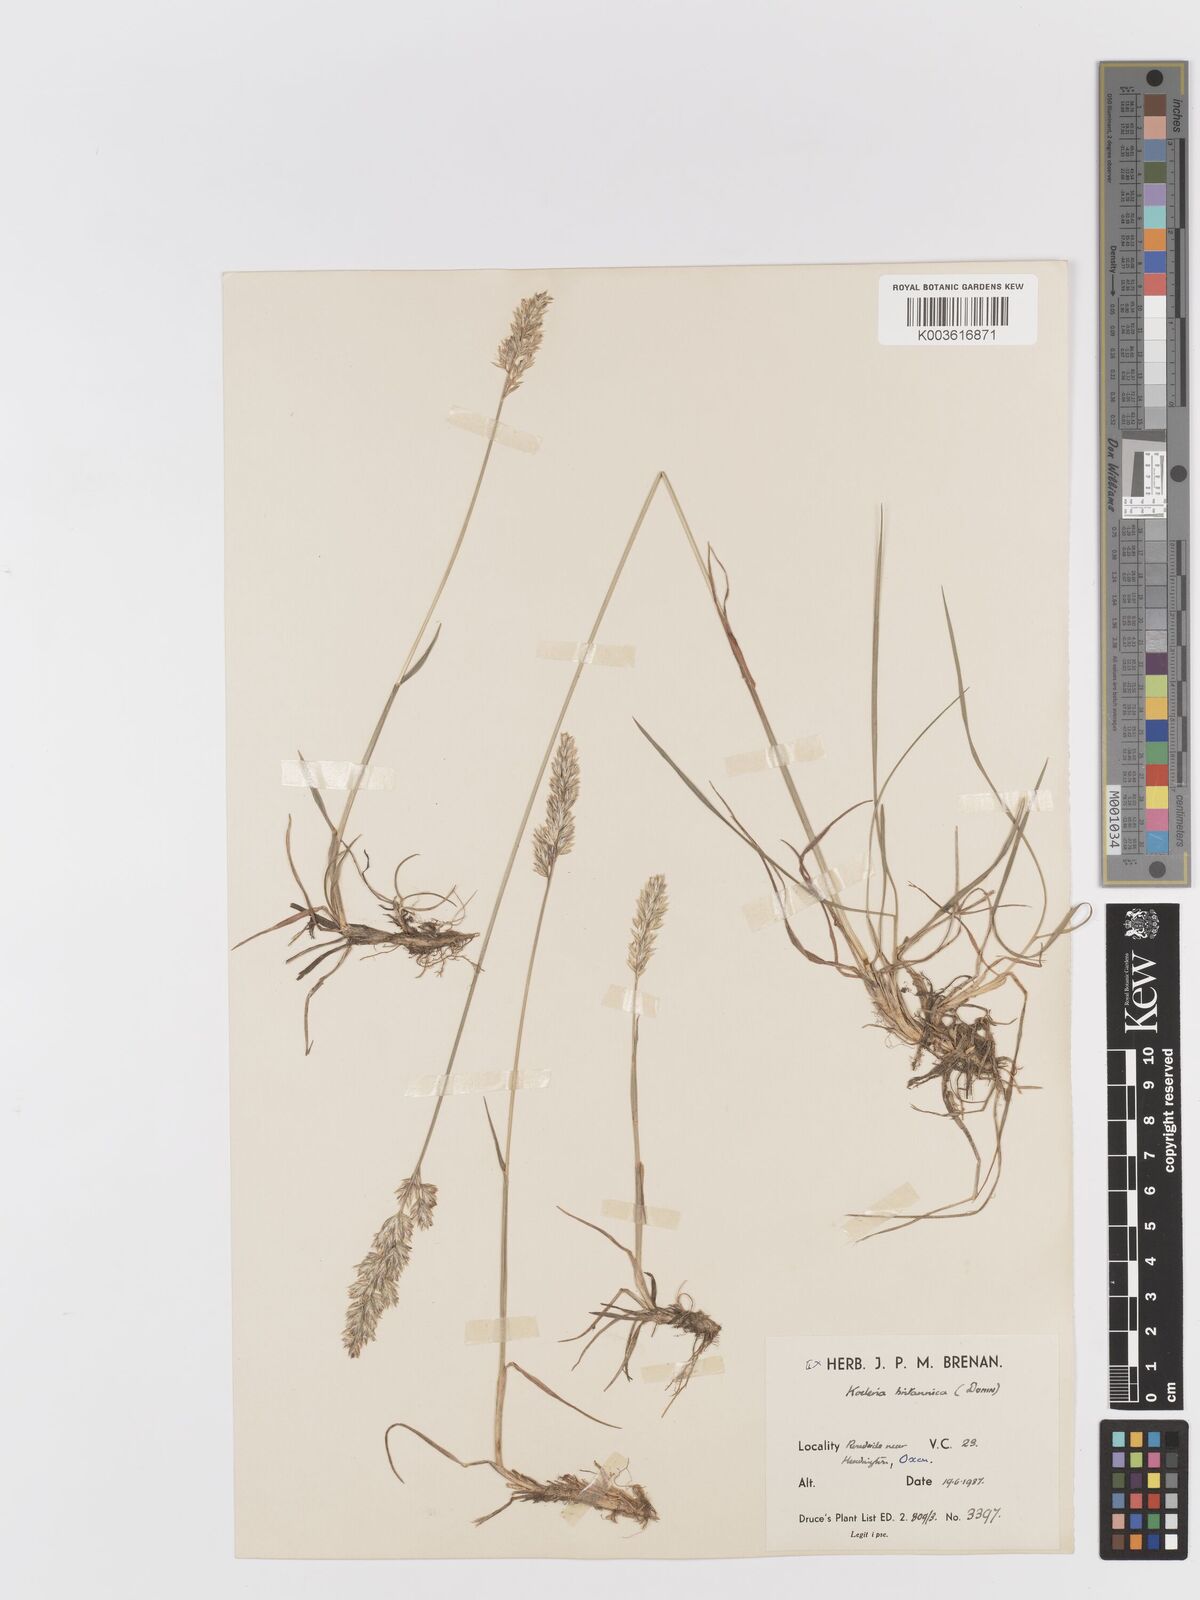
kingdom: Plantae
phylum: Tracheophyta
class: Liliopsida
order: Poales
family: Poaceae
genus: Koeleria
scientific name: Koeleria macrantha
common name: Crested hair-grass
